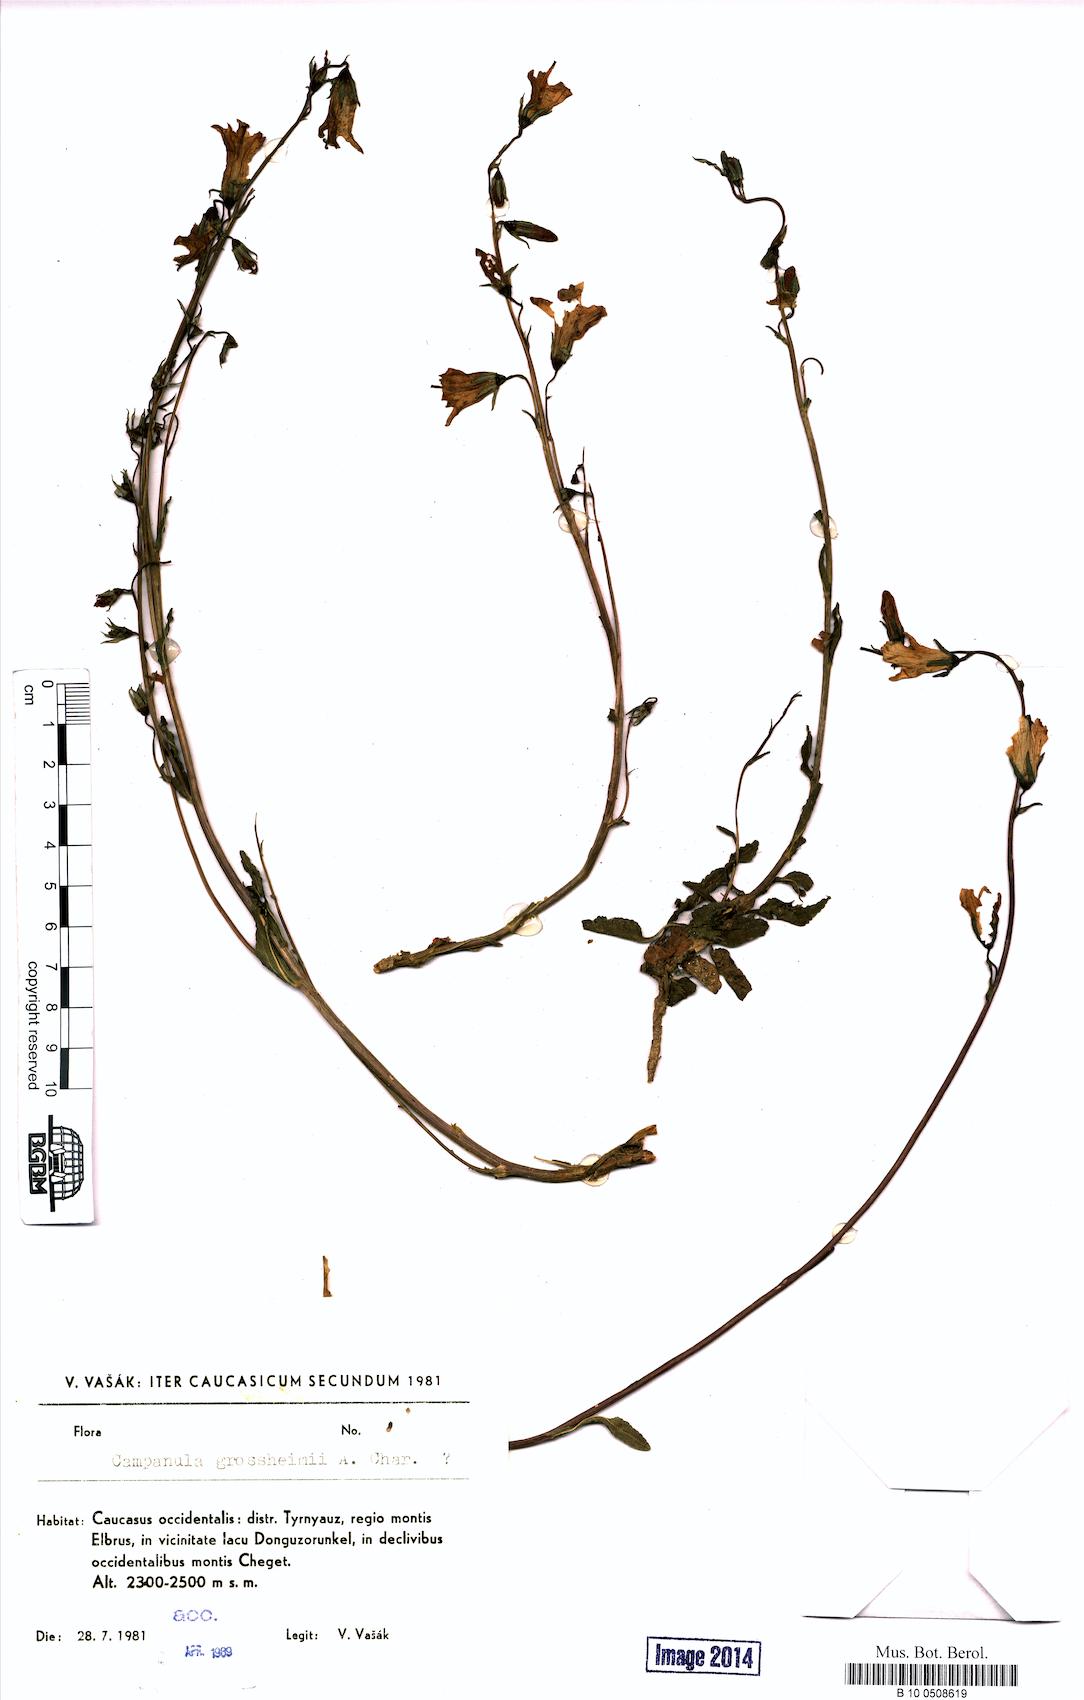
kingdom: Plantae
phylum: Tracheophyta
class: Magnoliopsida
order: Asterales
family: Campanulaceae
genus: Campanula
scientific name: Campanula rapunculoides
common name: Creeping bellflower
